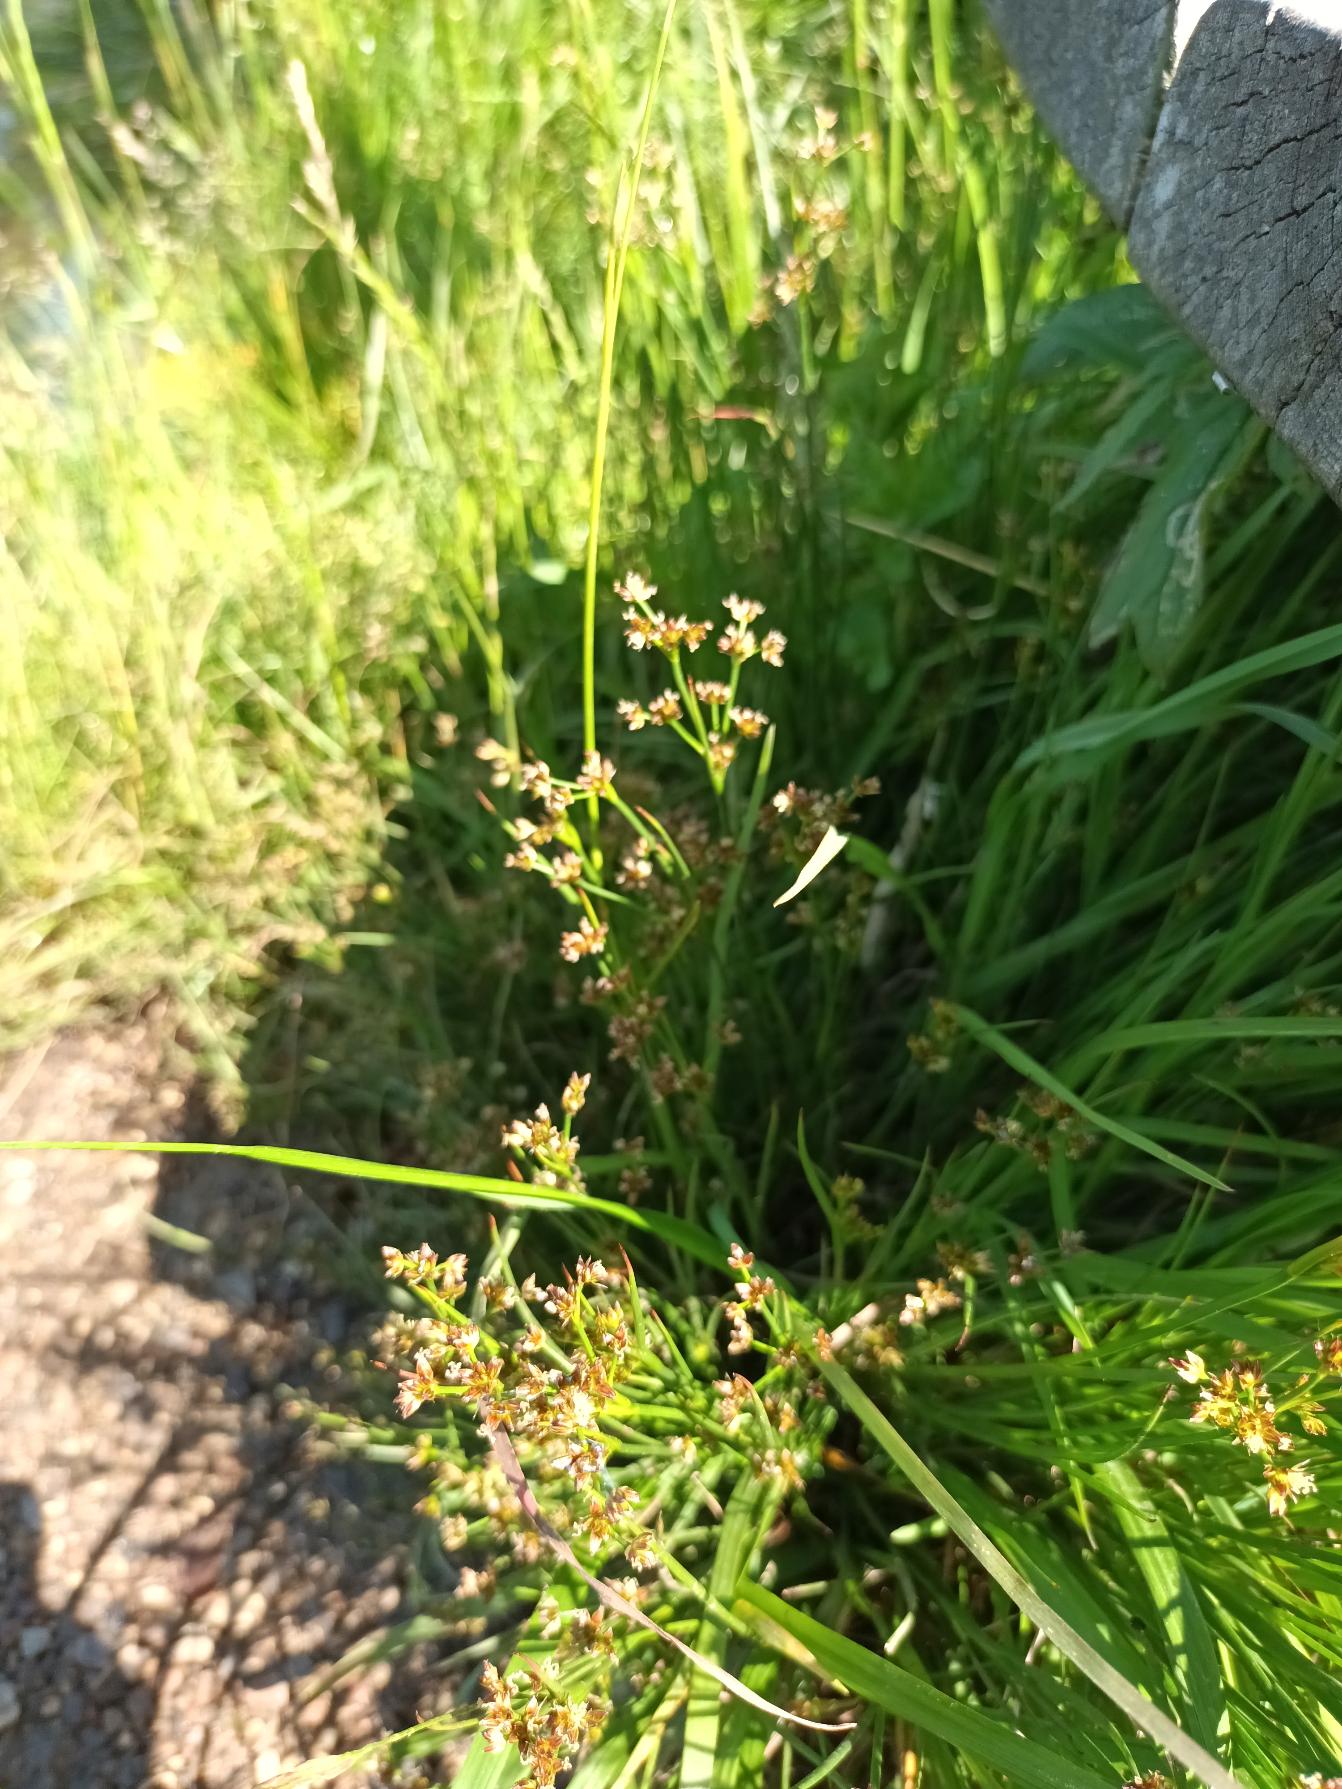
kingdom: Plantae
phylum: Tracheophyta
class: Liliopsida
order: Poales
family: Juncaceae
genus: Juncus
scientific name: Juncus articulatus
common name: Glanskapslet siv
